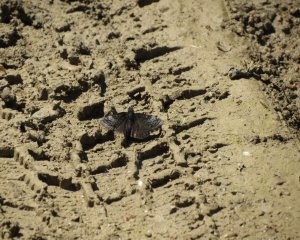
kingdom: Animalia
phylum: Arthropoda
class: Insecta
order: Lepidoptera
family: Hesperiidae
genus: Erynnis
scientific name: Erynnis icelus
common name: Dreamy Duskywing
